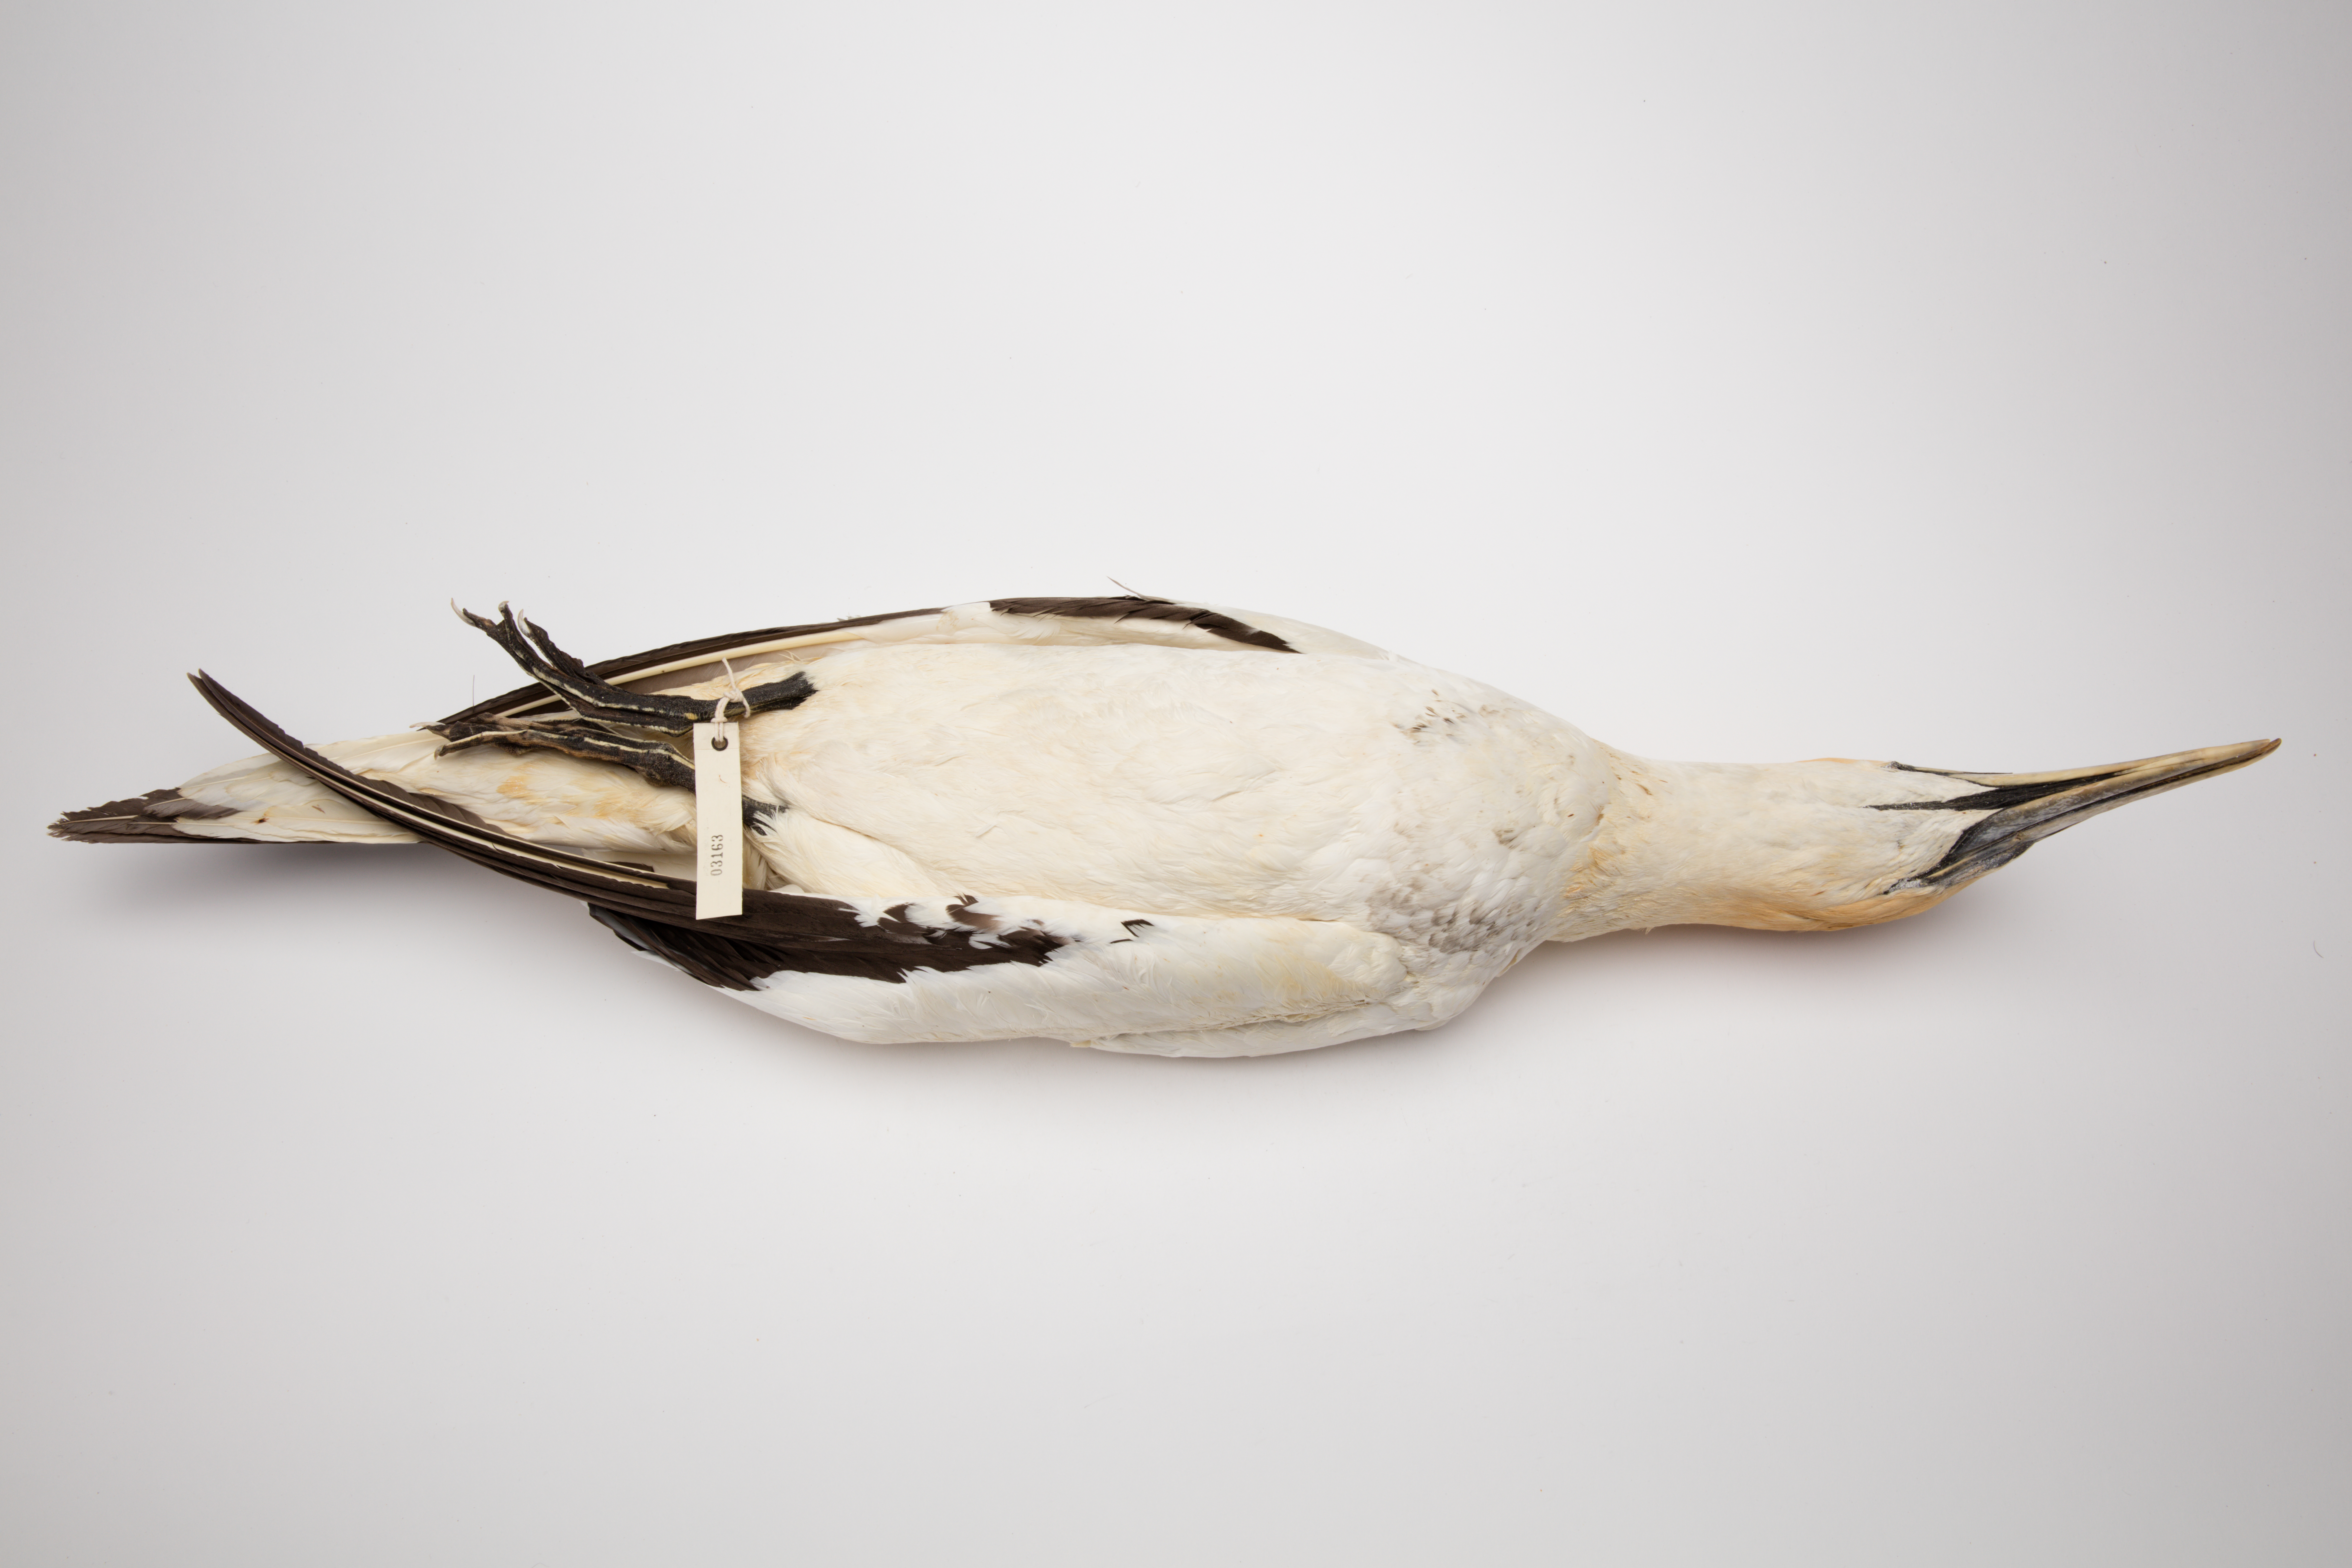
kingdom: Animalia
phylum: Chordata
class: Aves
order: Suliformes
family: Sulidae
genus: Morus
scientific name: Morus serrator
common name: Australasian gannet
